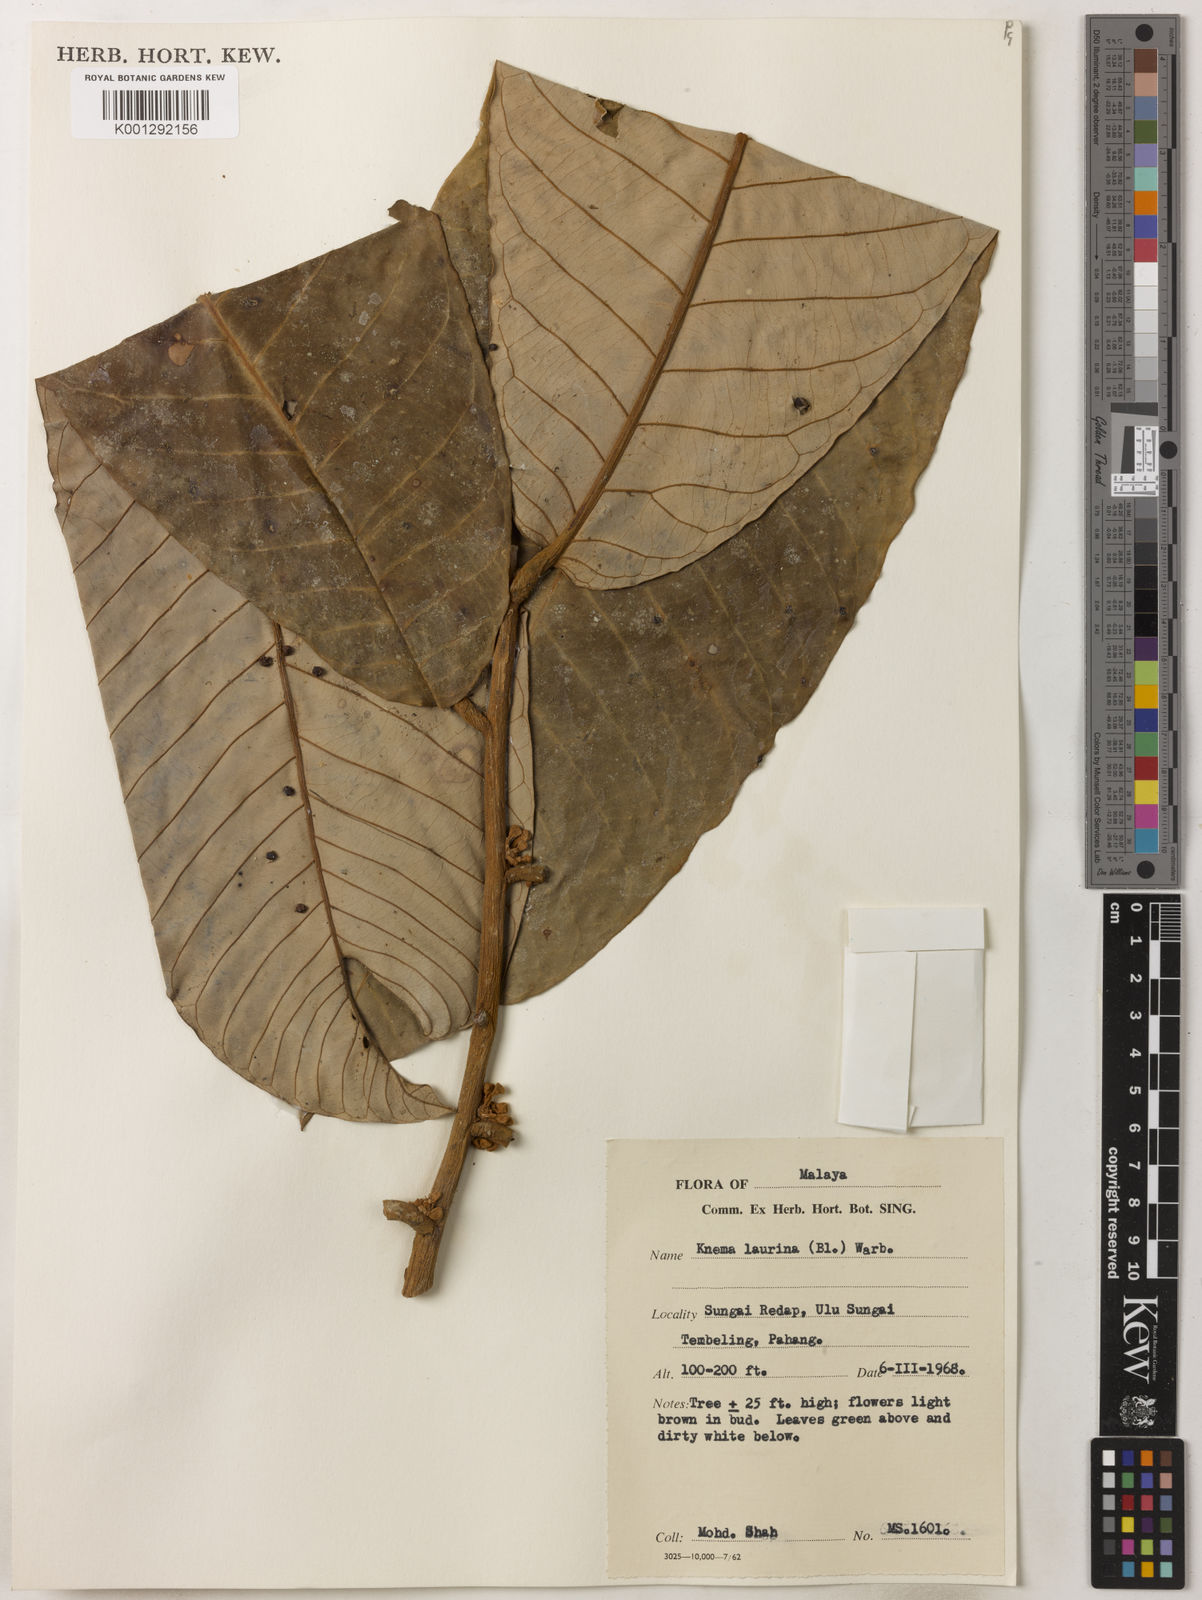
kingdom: Plantae
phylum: Tracheophyta
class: Magnoliopsida
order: Magnoliales
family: Myristicaceae
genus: Knema
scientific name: Knema laurina
